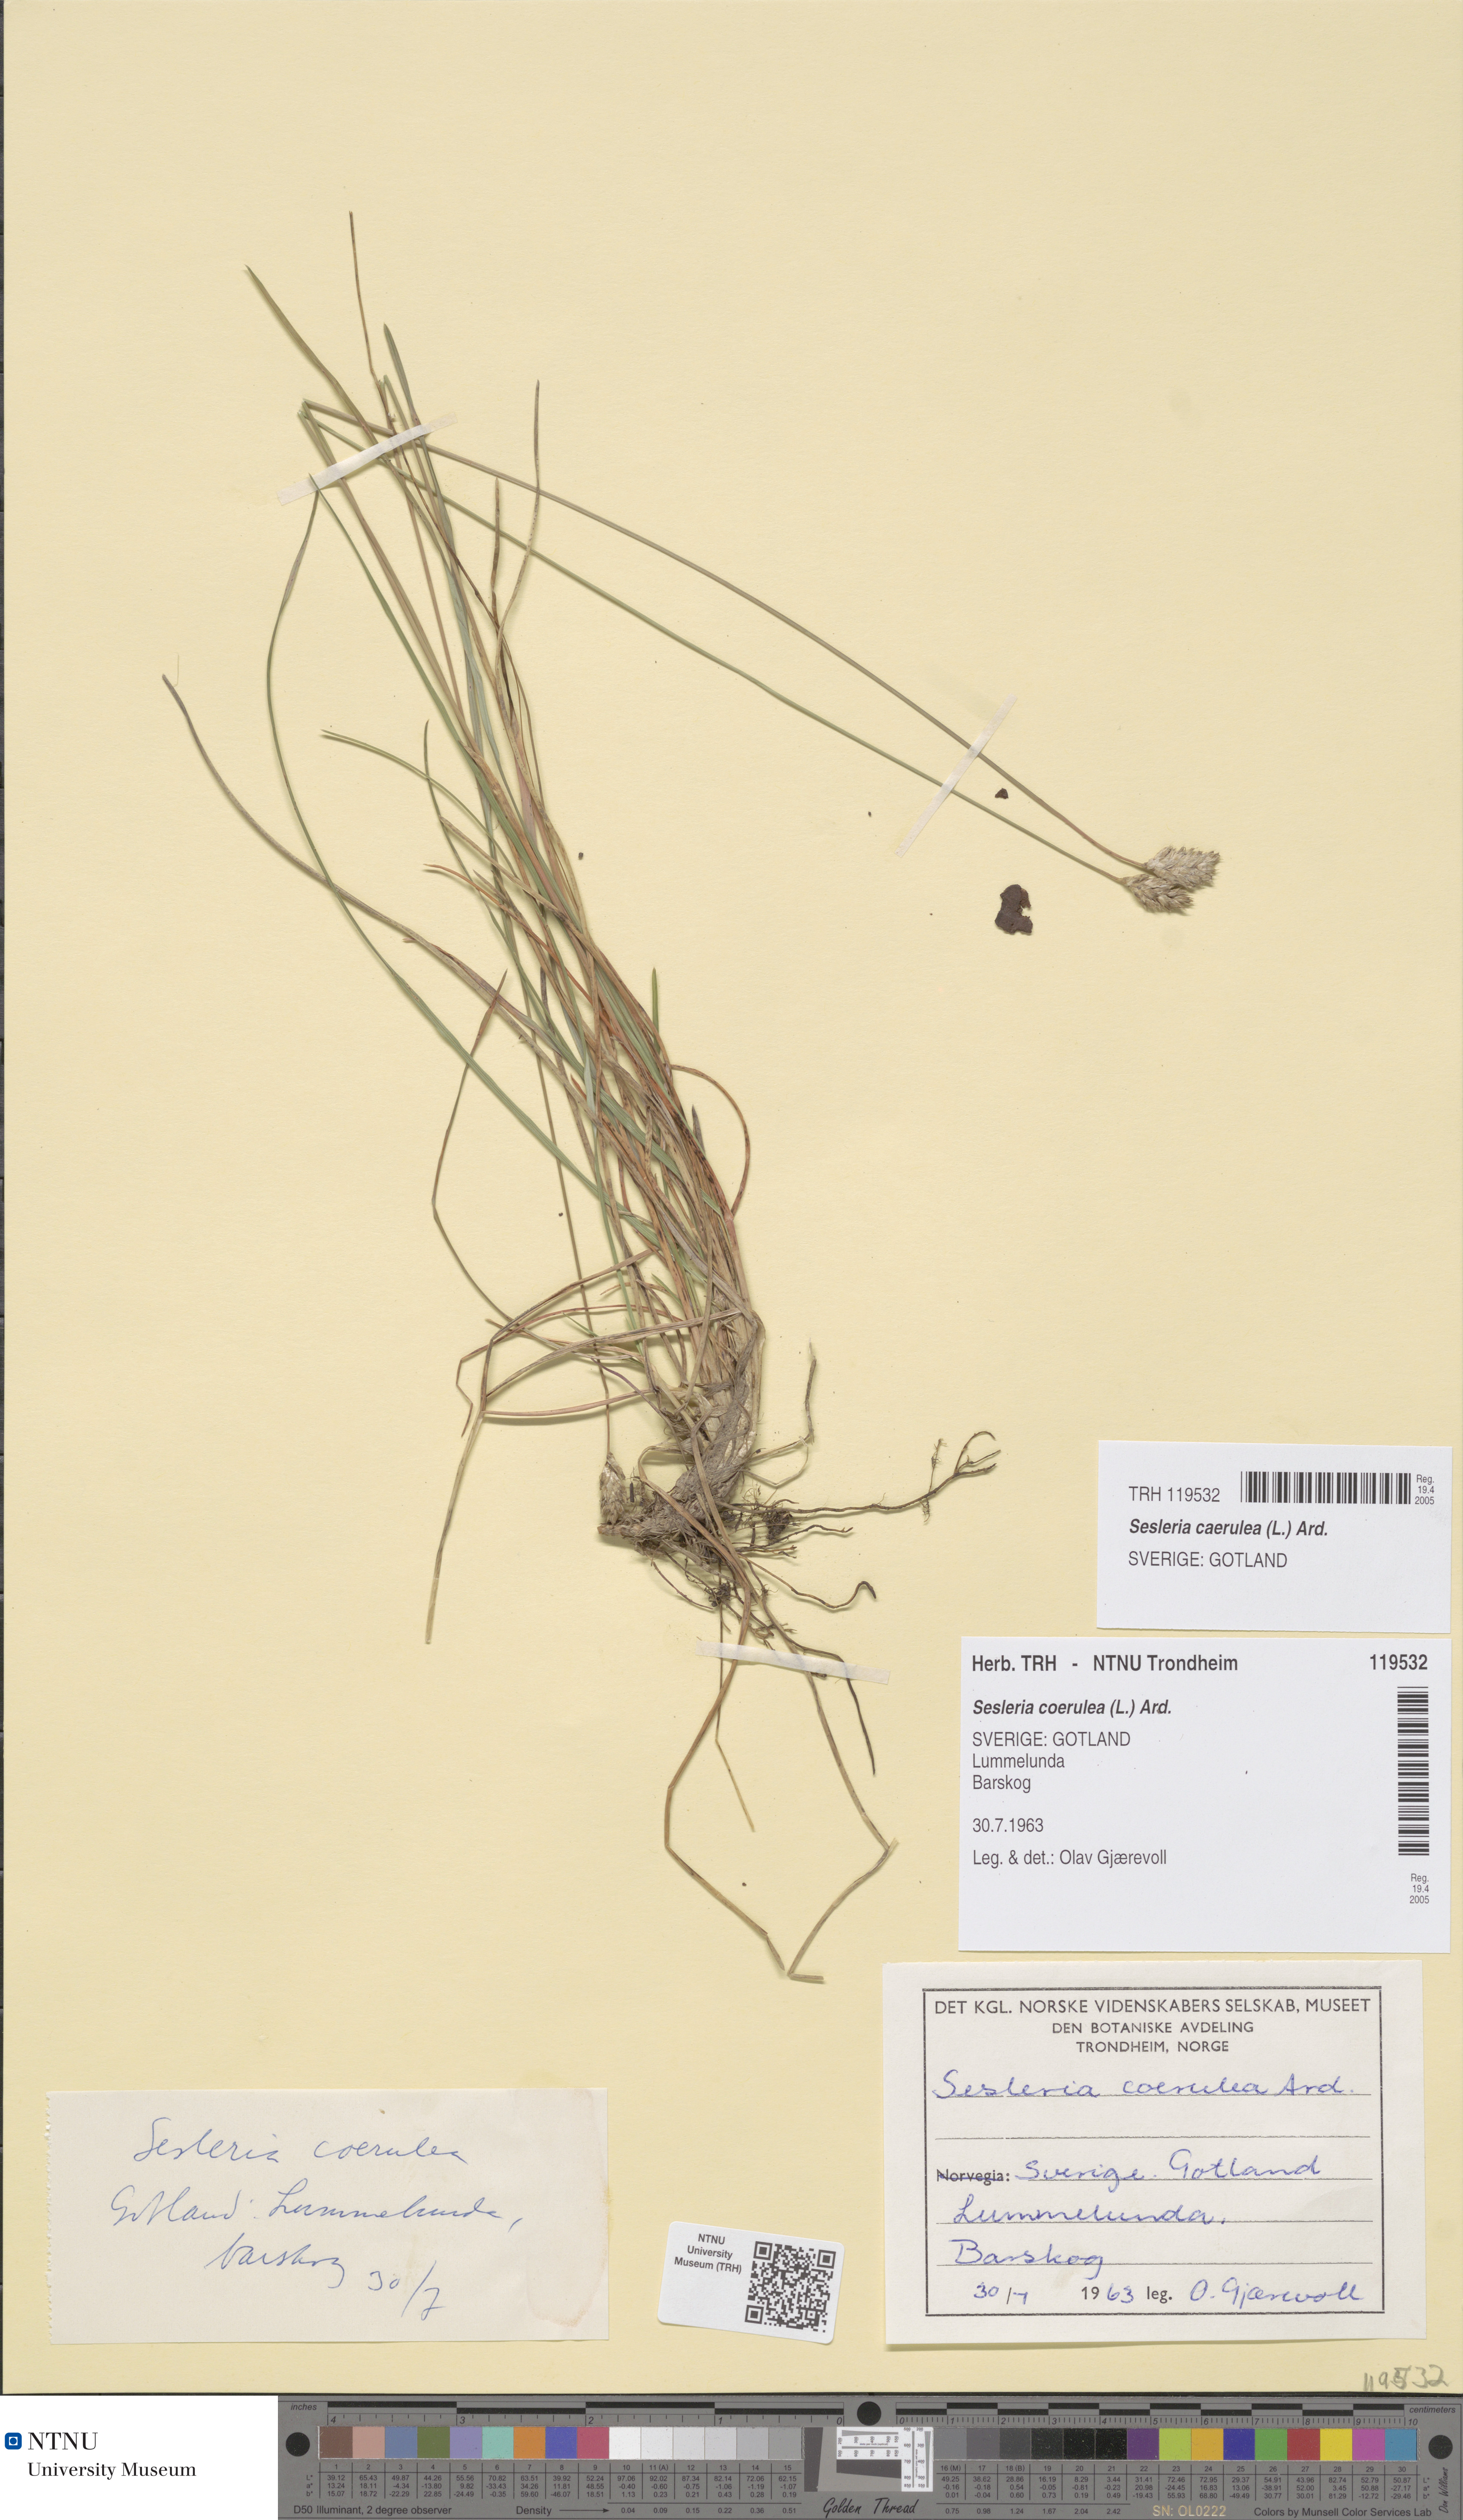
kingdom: Plantae
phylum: Tracheophyta
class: Liliopsida
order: Poales
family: Poaceae
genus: Sesleria
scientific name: Sesleria uliginosa
